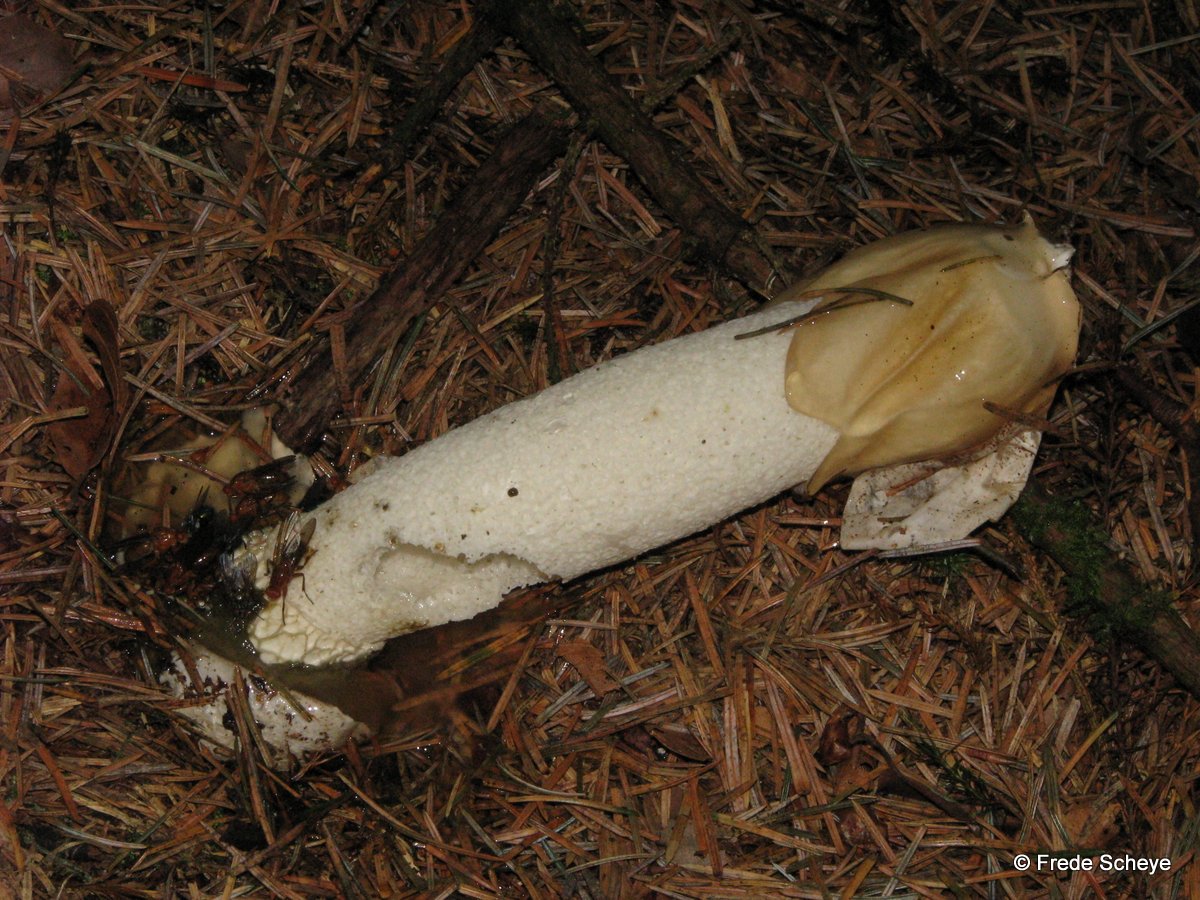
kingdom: Fungi
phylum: Basidiomycota
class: Agaricomycetes
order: Phallales
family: Phallaceae
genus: Phallus
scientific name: Phallus impudicus
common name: almindelig stinksvamp
